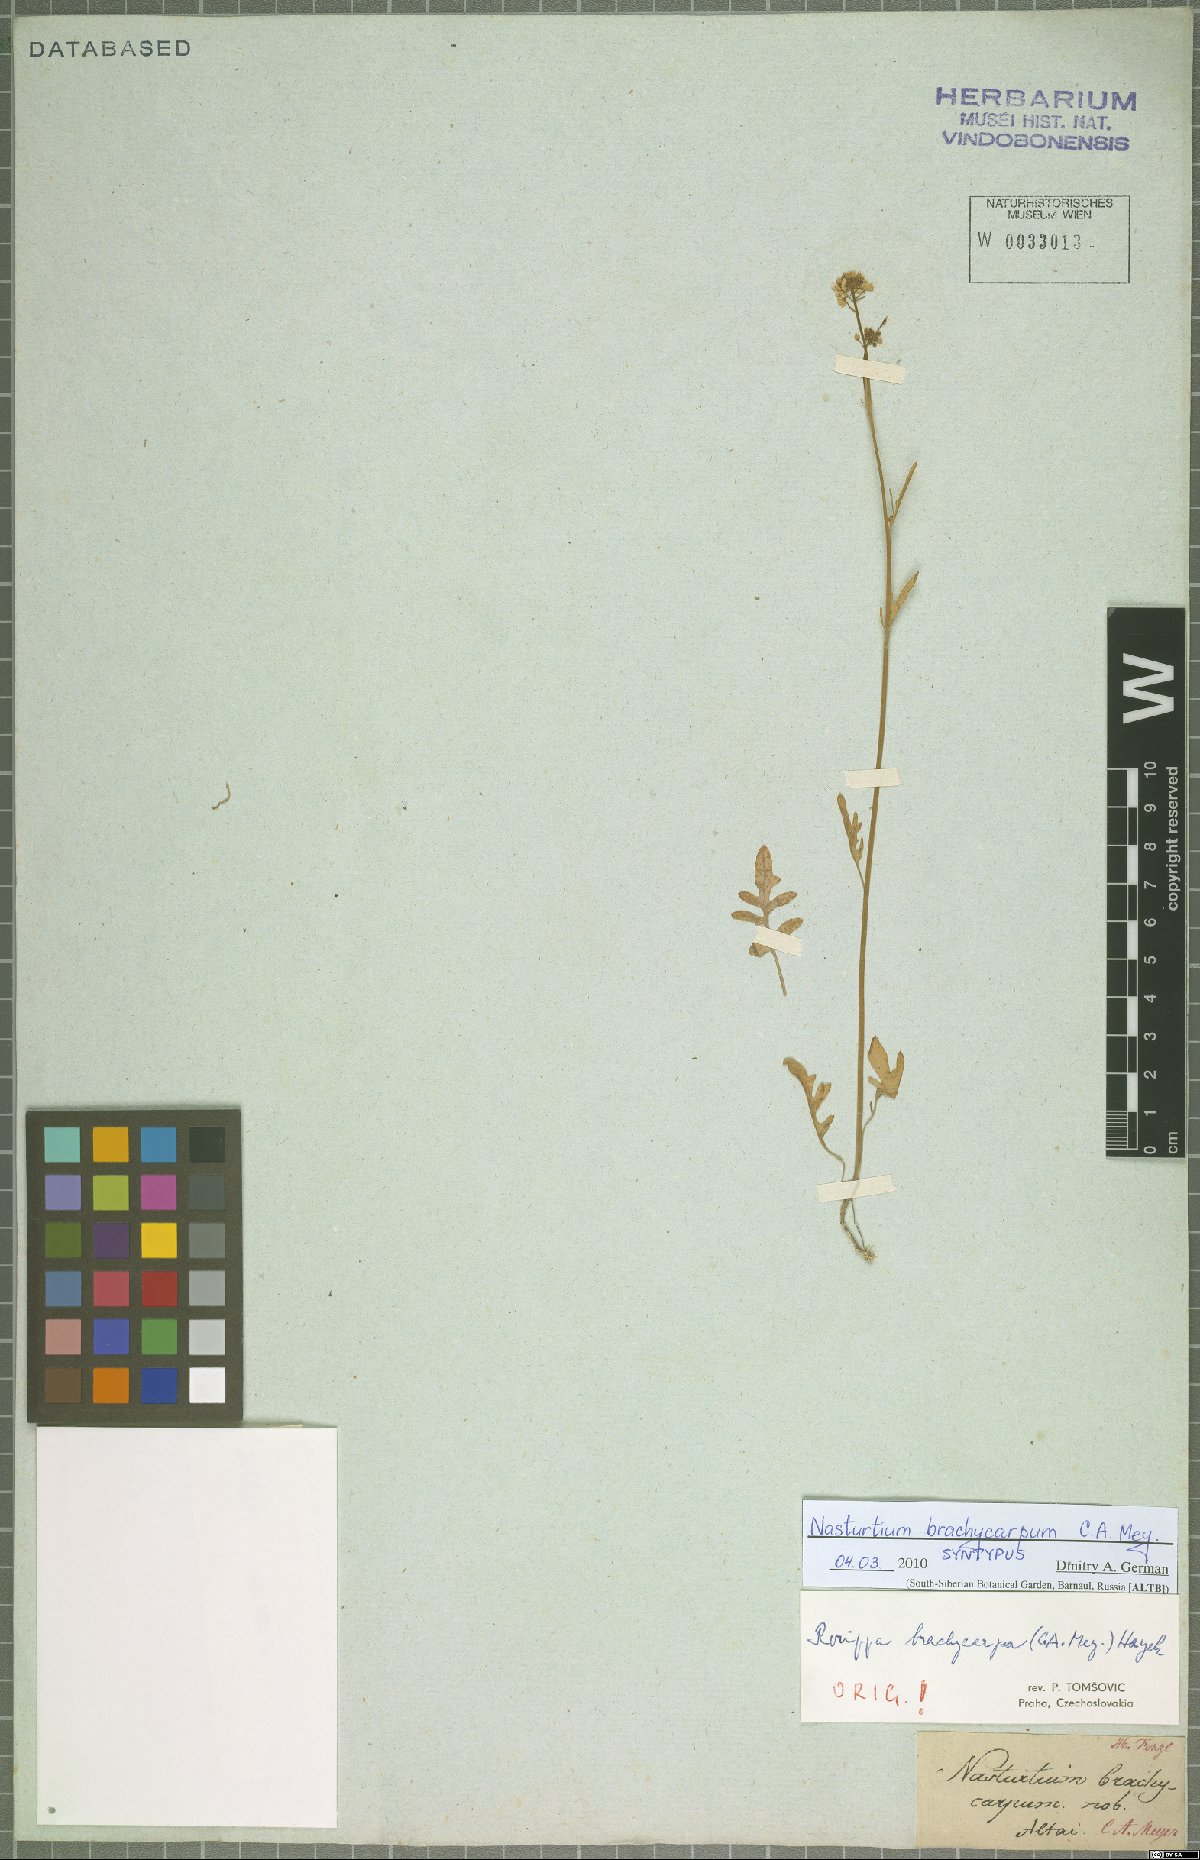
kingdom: Plantae
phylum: Tracheophyta
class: Magnoliopsida
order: Brassicales
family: Brassicaceae
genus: Rorippa
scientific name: Rorippa brachycarpa
